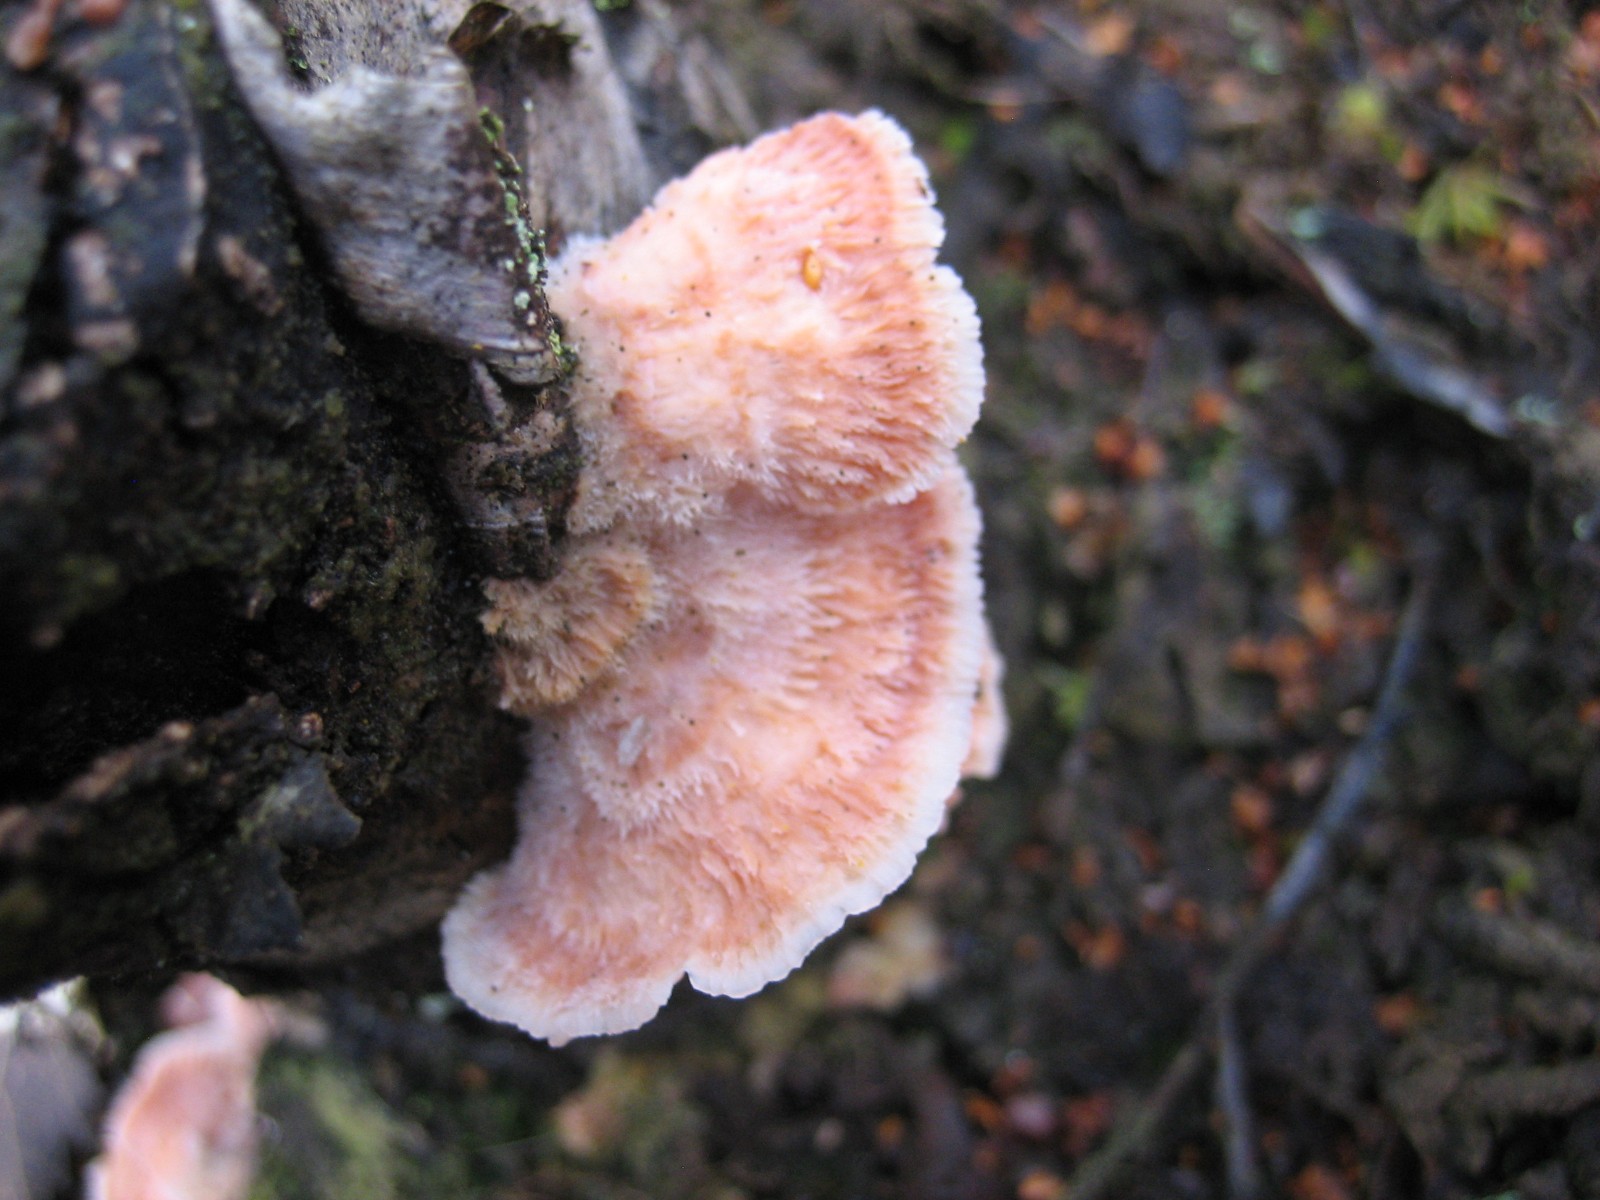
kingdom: Fungi
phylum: Basidiomycota
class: Agaricomycetes
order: Polyporales
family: Meruliaceae
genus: Phlebia
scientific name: Phlebia tremellosa
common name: bævrende åresvamp
